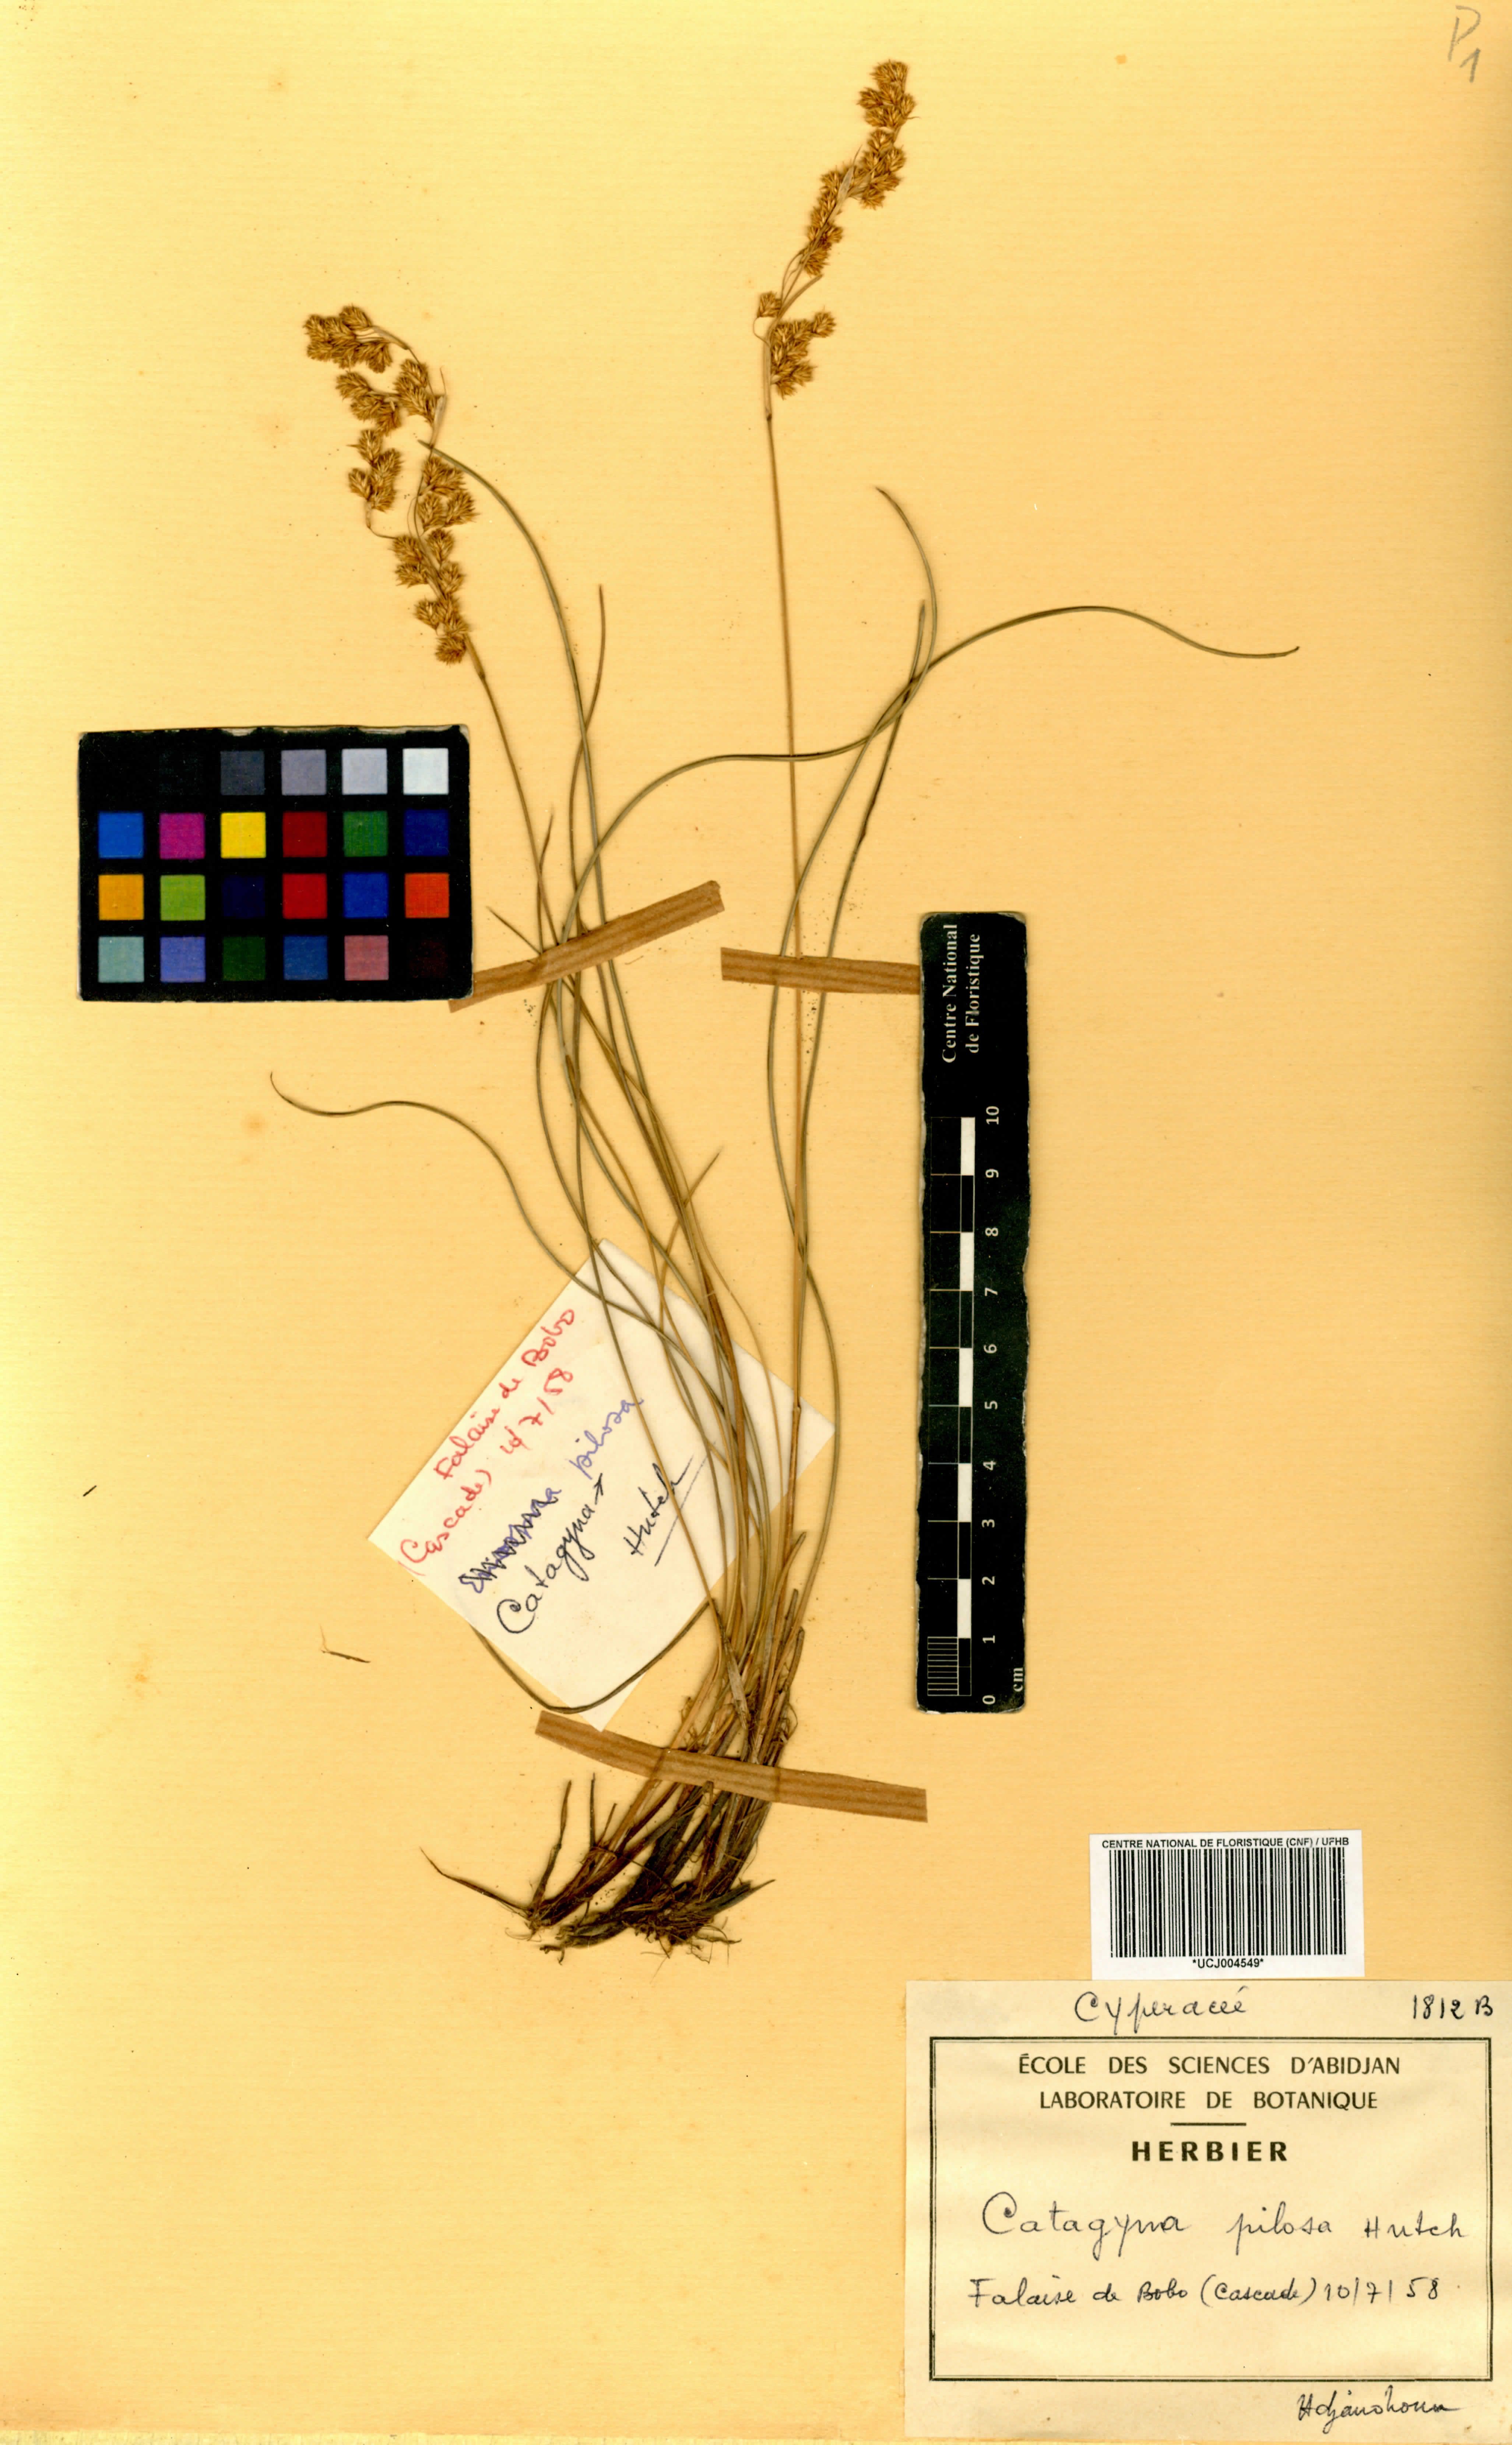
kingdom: Plantae
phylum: Tracheophyta
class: Liliopsida
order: Poales
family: Cyperaceae
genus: Afrotrilepis
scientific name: Afrotrilepis pilosa
